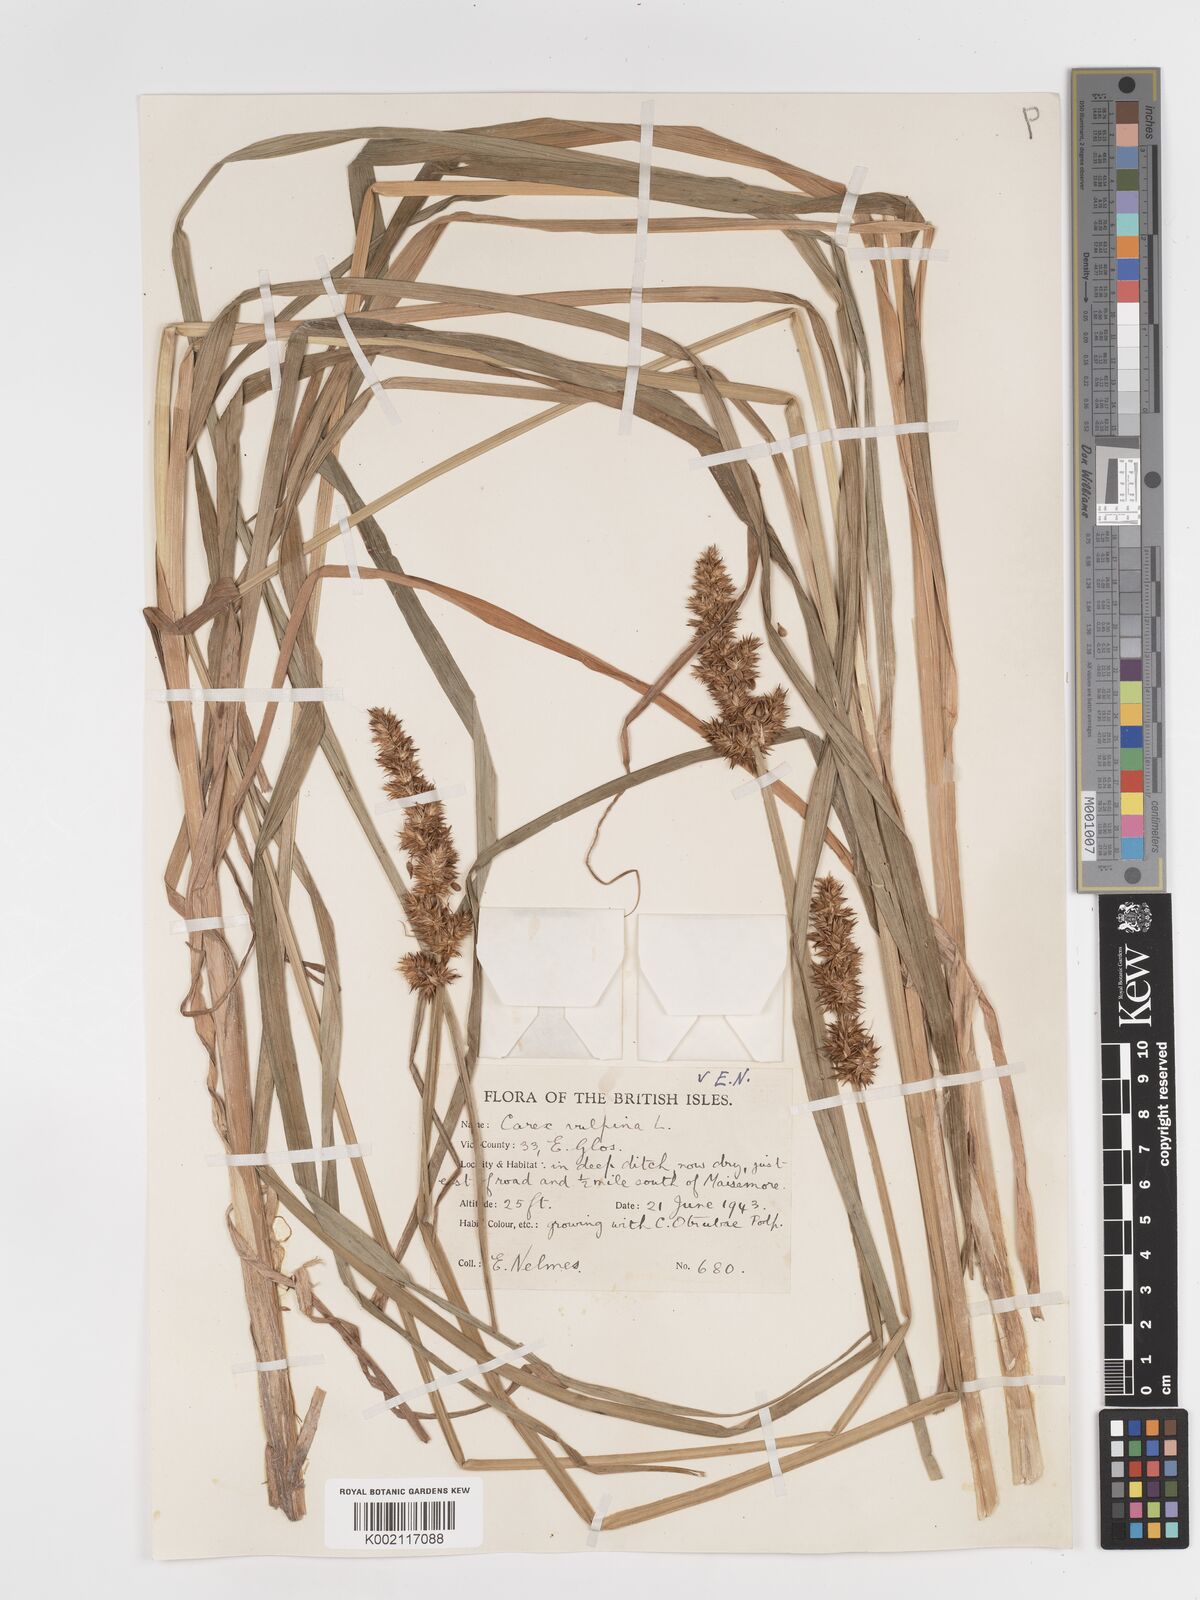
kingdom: Plantae
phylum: Tracheophyta
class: Liliopsida
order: Poales
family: Cyperaceae
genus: Carex
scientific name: Carex vulpina
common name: True fox-sedge
